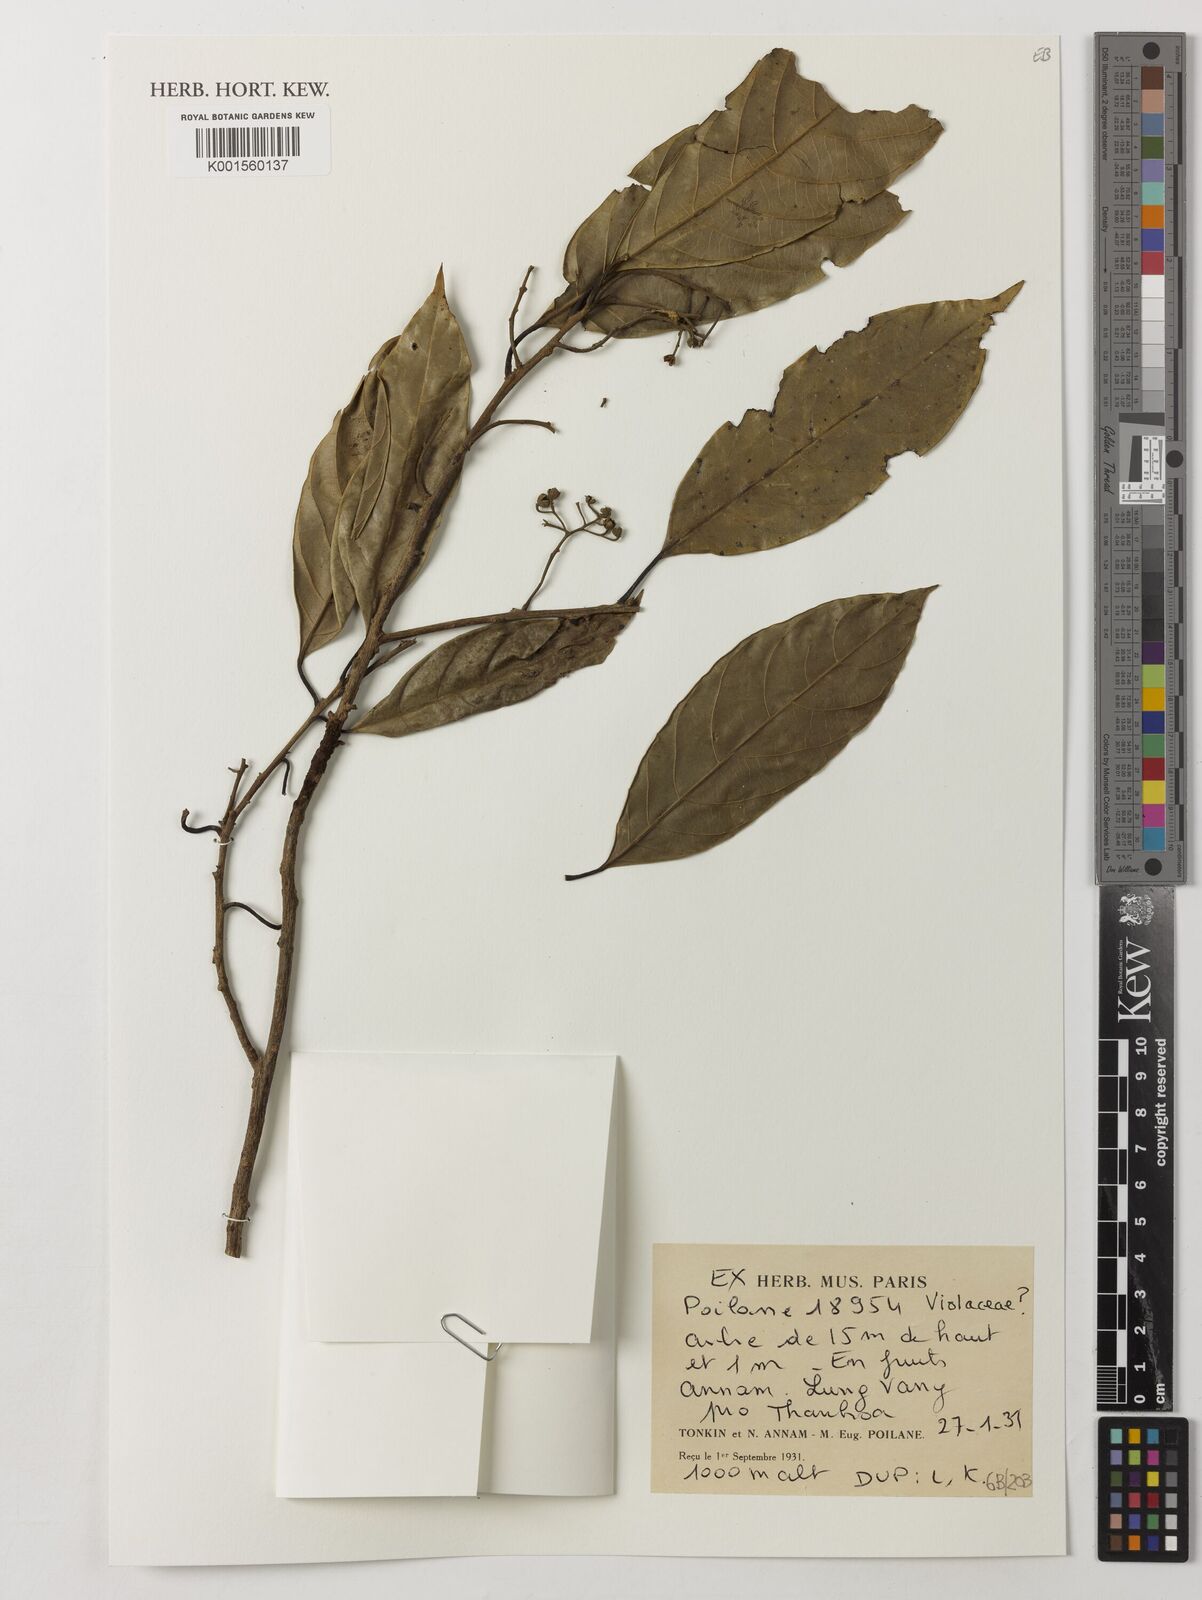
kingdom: Plantae
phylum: Tracheophyta
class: Magnoliopsida
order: Malpighiales
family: Violaceae
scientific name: Violaceae
